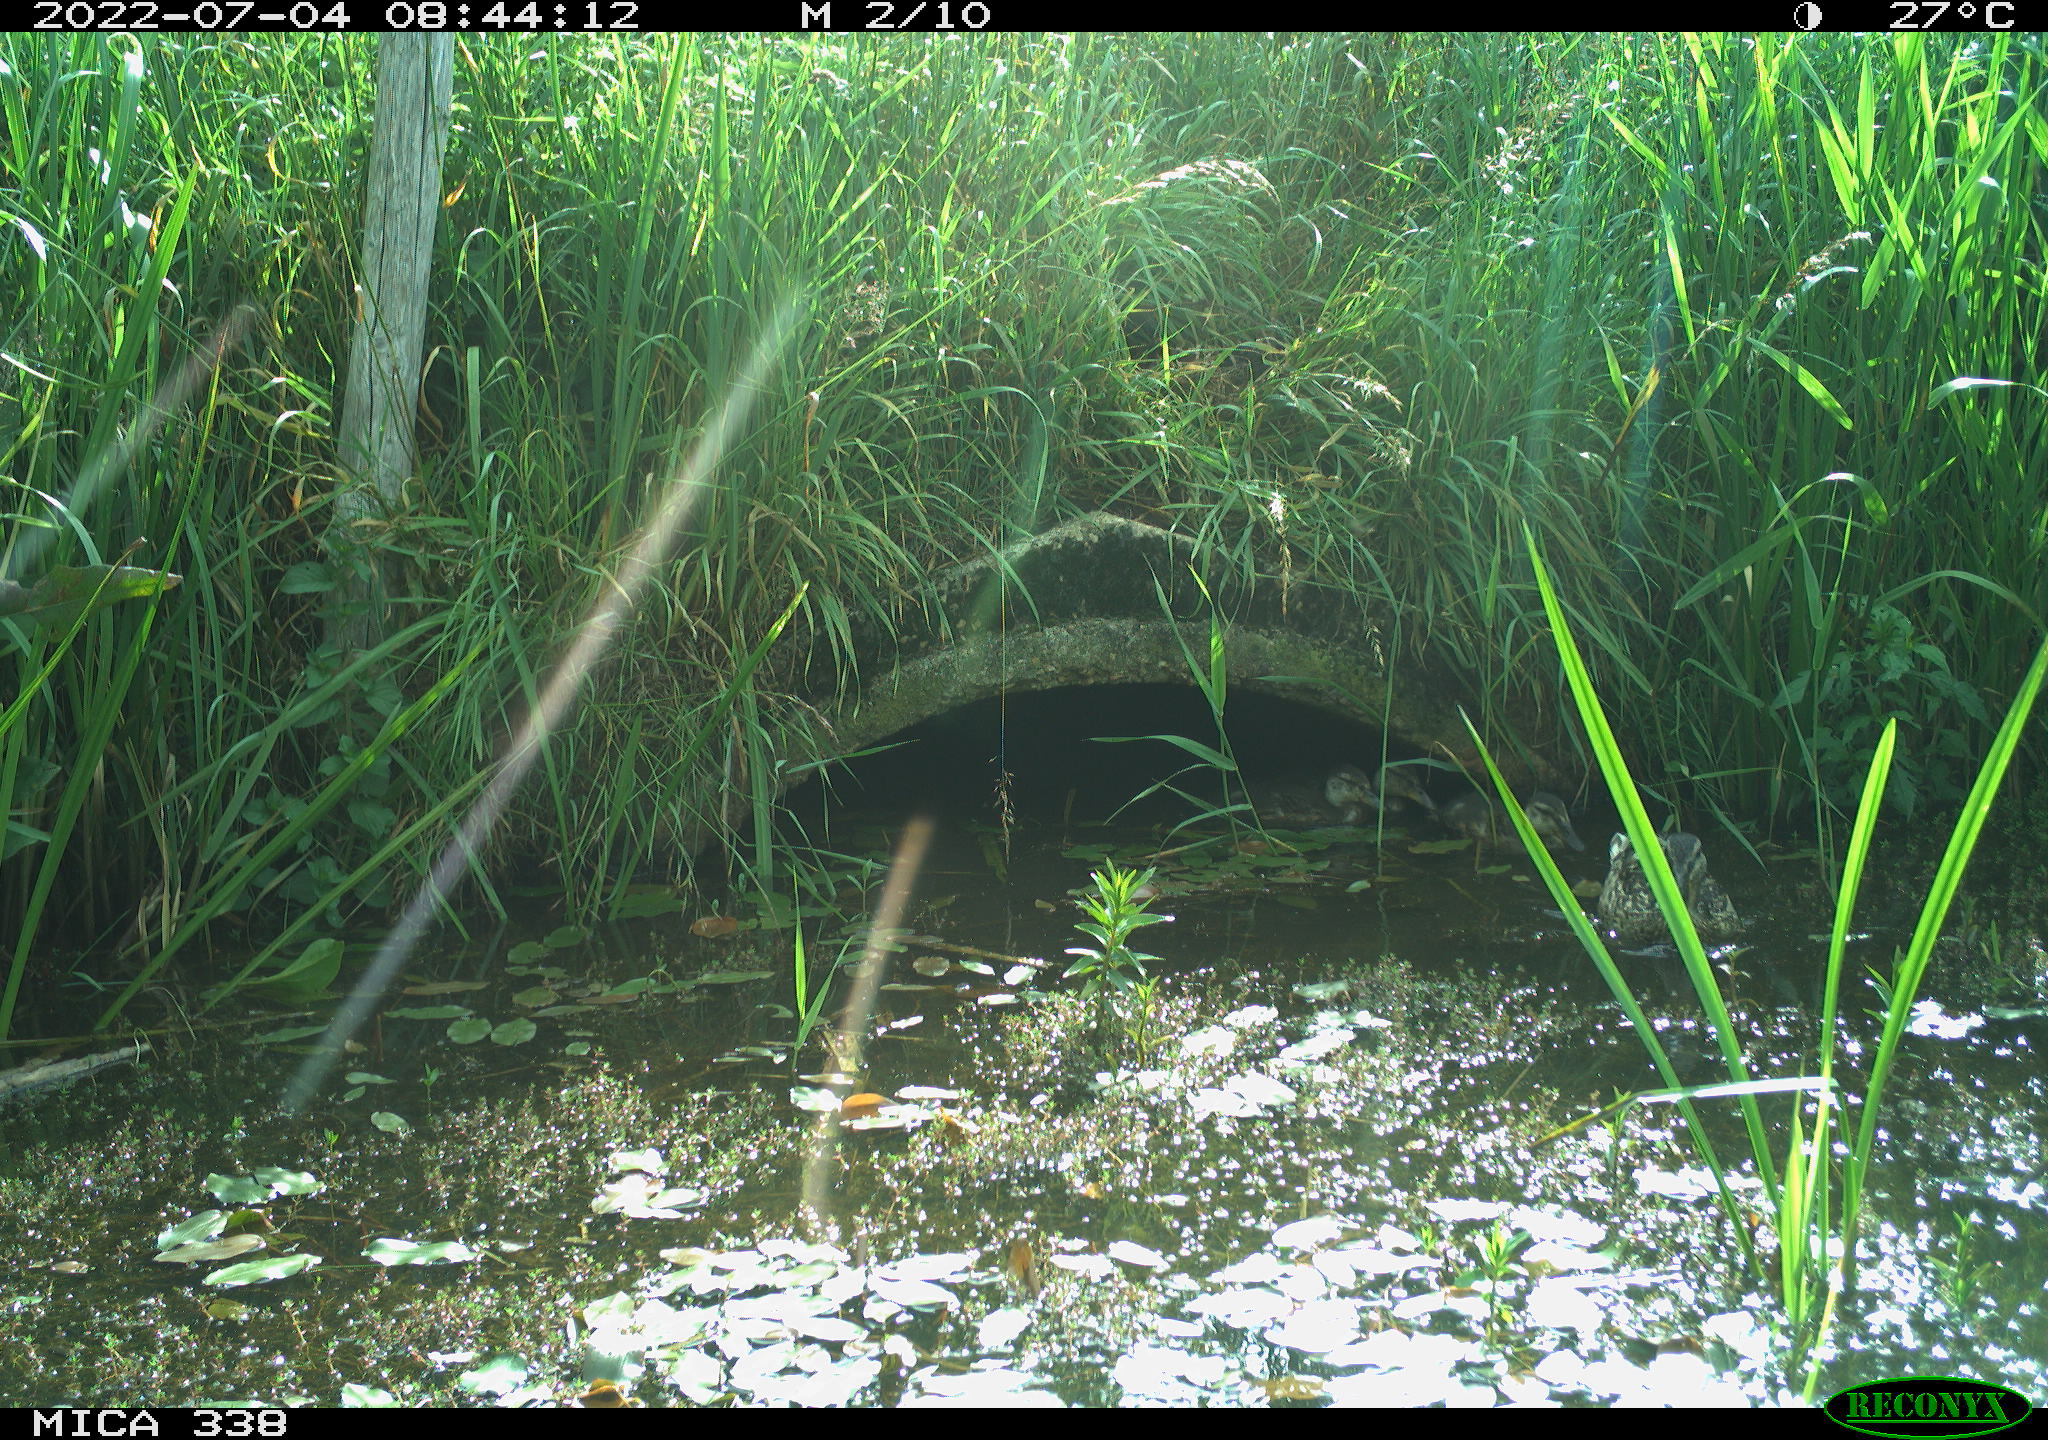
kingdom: Animalia
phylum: Chordata
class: Aves
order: Anseriformes
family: Anatidae
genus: Anas
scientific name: Anas platyrhynchos
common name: Mallard
